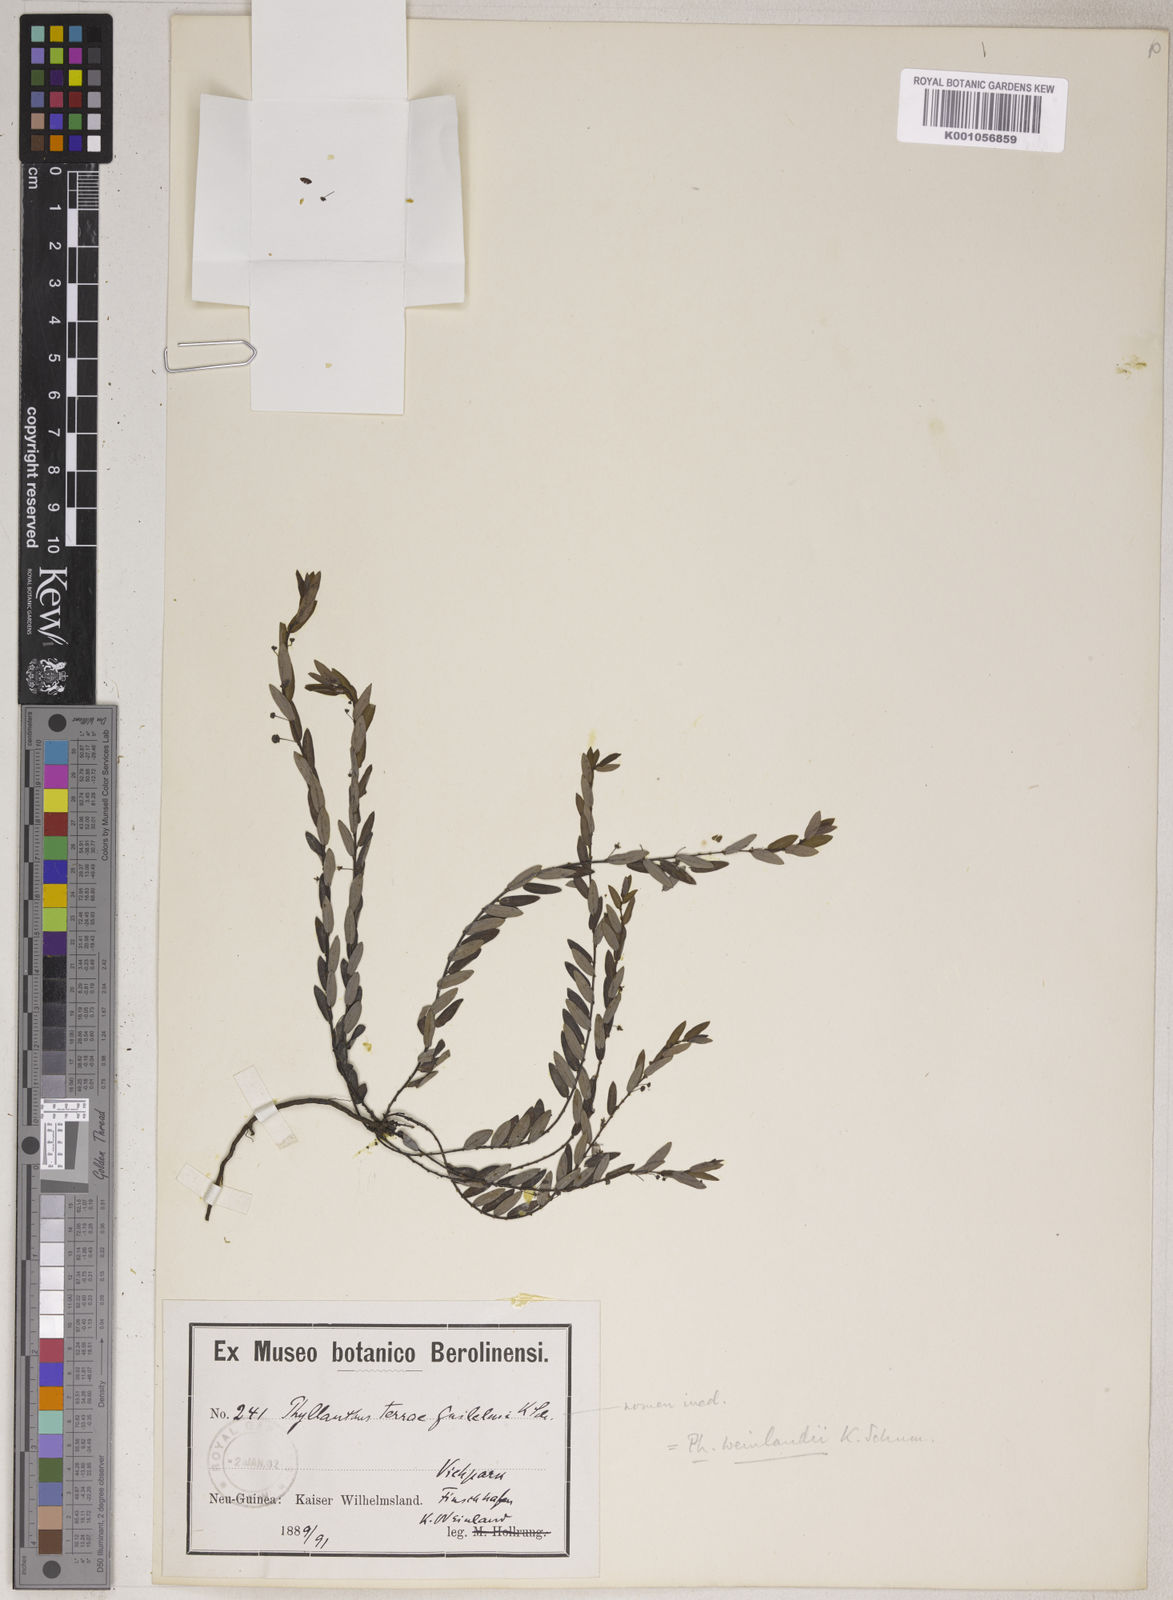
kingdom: Plantae
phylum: Tracheophyta
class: Magnoliopsida
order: Malpighiales
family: Phyllanthaceae
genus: Phyllanthus
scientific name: Phyllanthus virgatus
